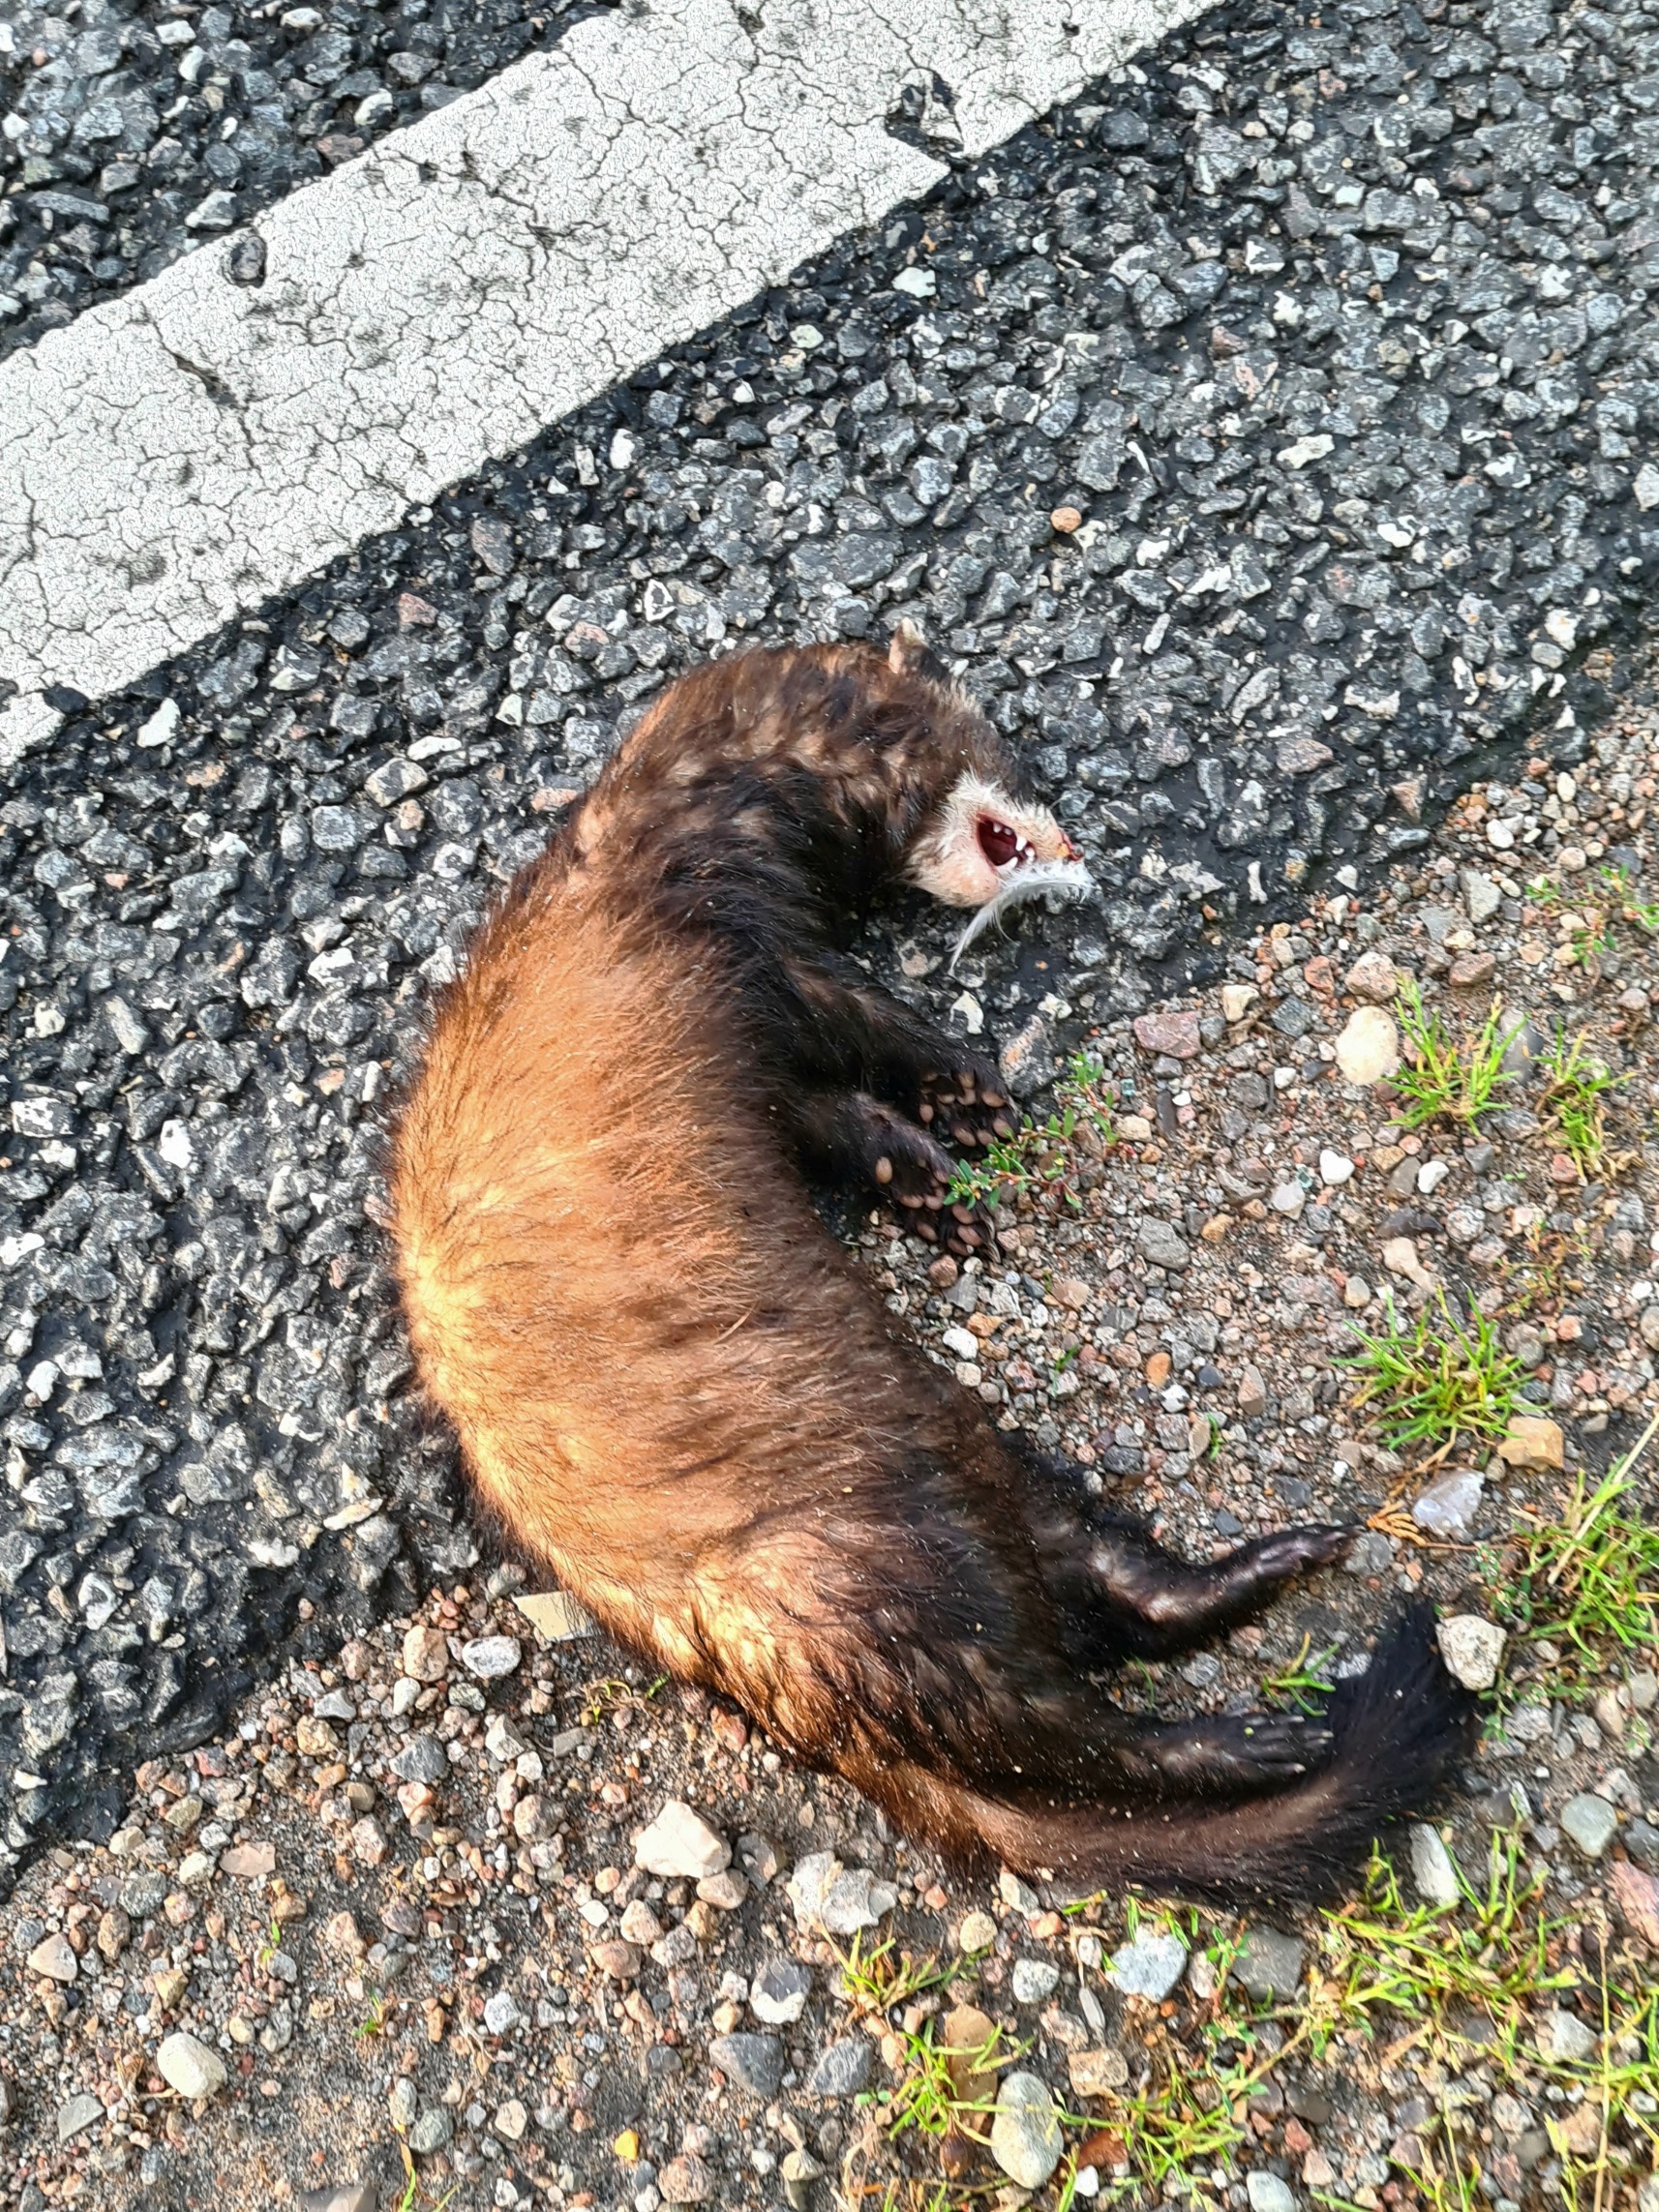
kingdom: Animalia
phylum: Chordata
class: Mammalia
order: Carnivora
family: Mustelidae
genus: Mustela
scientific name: Mustela putorius
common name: Ilder
